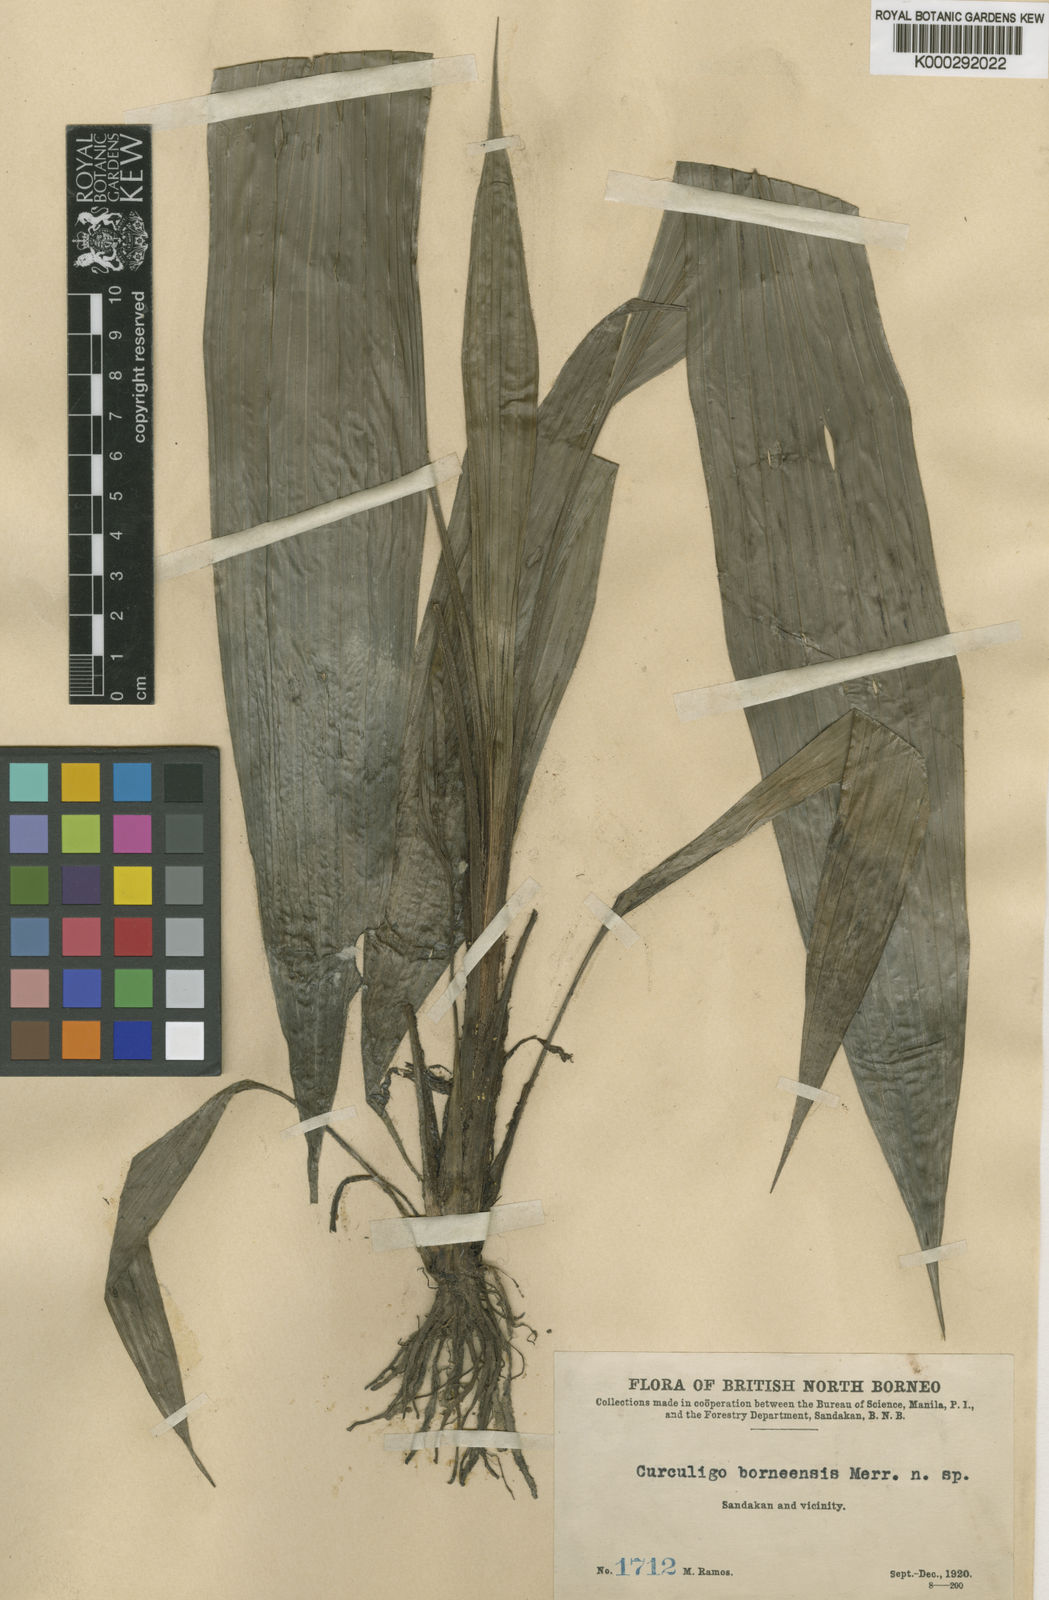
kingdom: Plantae
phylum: Tracheophyta
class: Liliopsida
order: Asparagales
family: Hypoxidaceae
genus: Curculigo
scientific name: Curculigo latifolia
